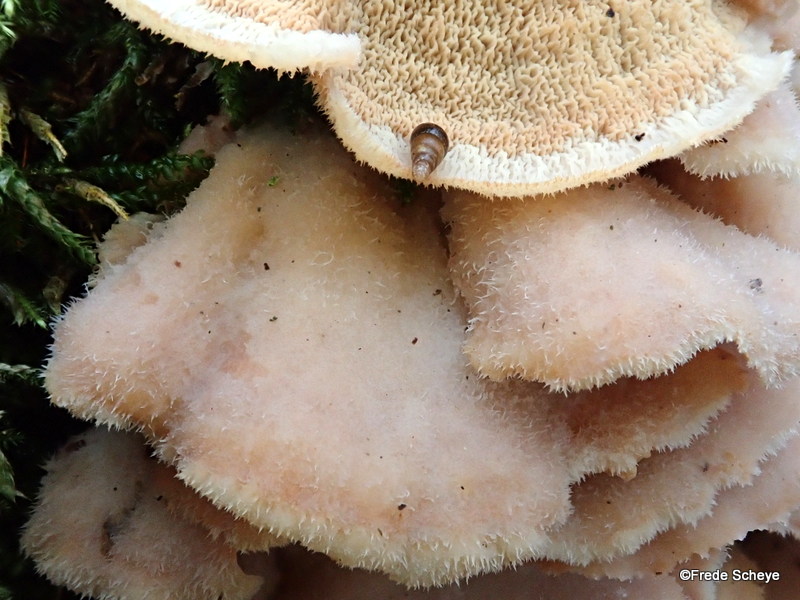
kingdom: Fungi
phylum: Basidiomycota
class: Agaricomycetes
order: Polyporales
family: Meruliaceae
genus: Phlebia
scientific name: Phlebia tremellosa
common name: bævrende åresvamp
